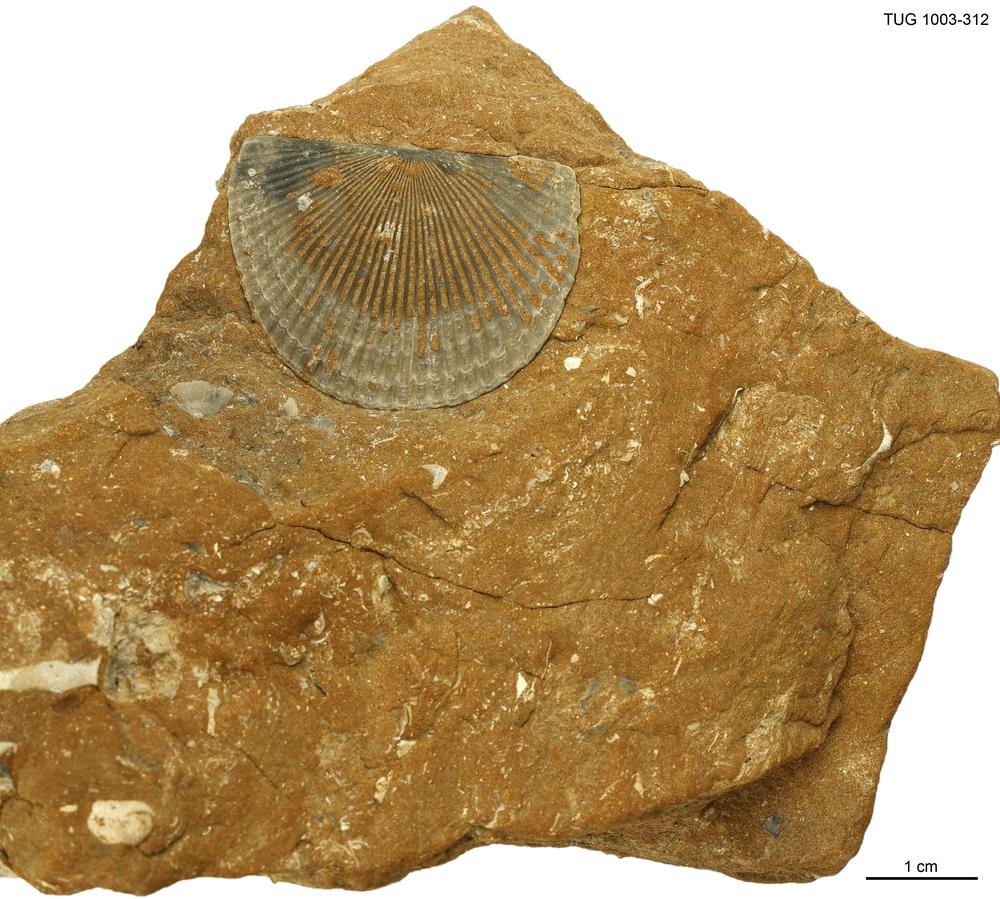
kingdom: Animalia
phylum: Brachiopoda
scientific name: Brachiopoda
